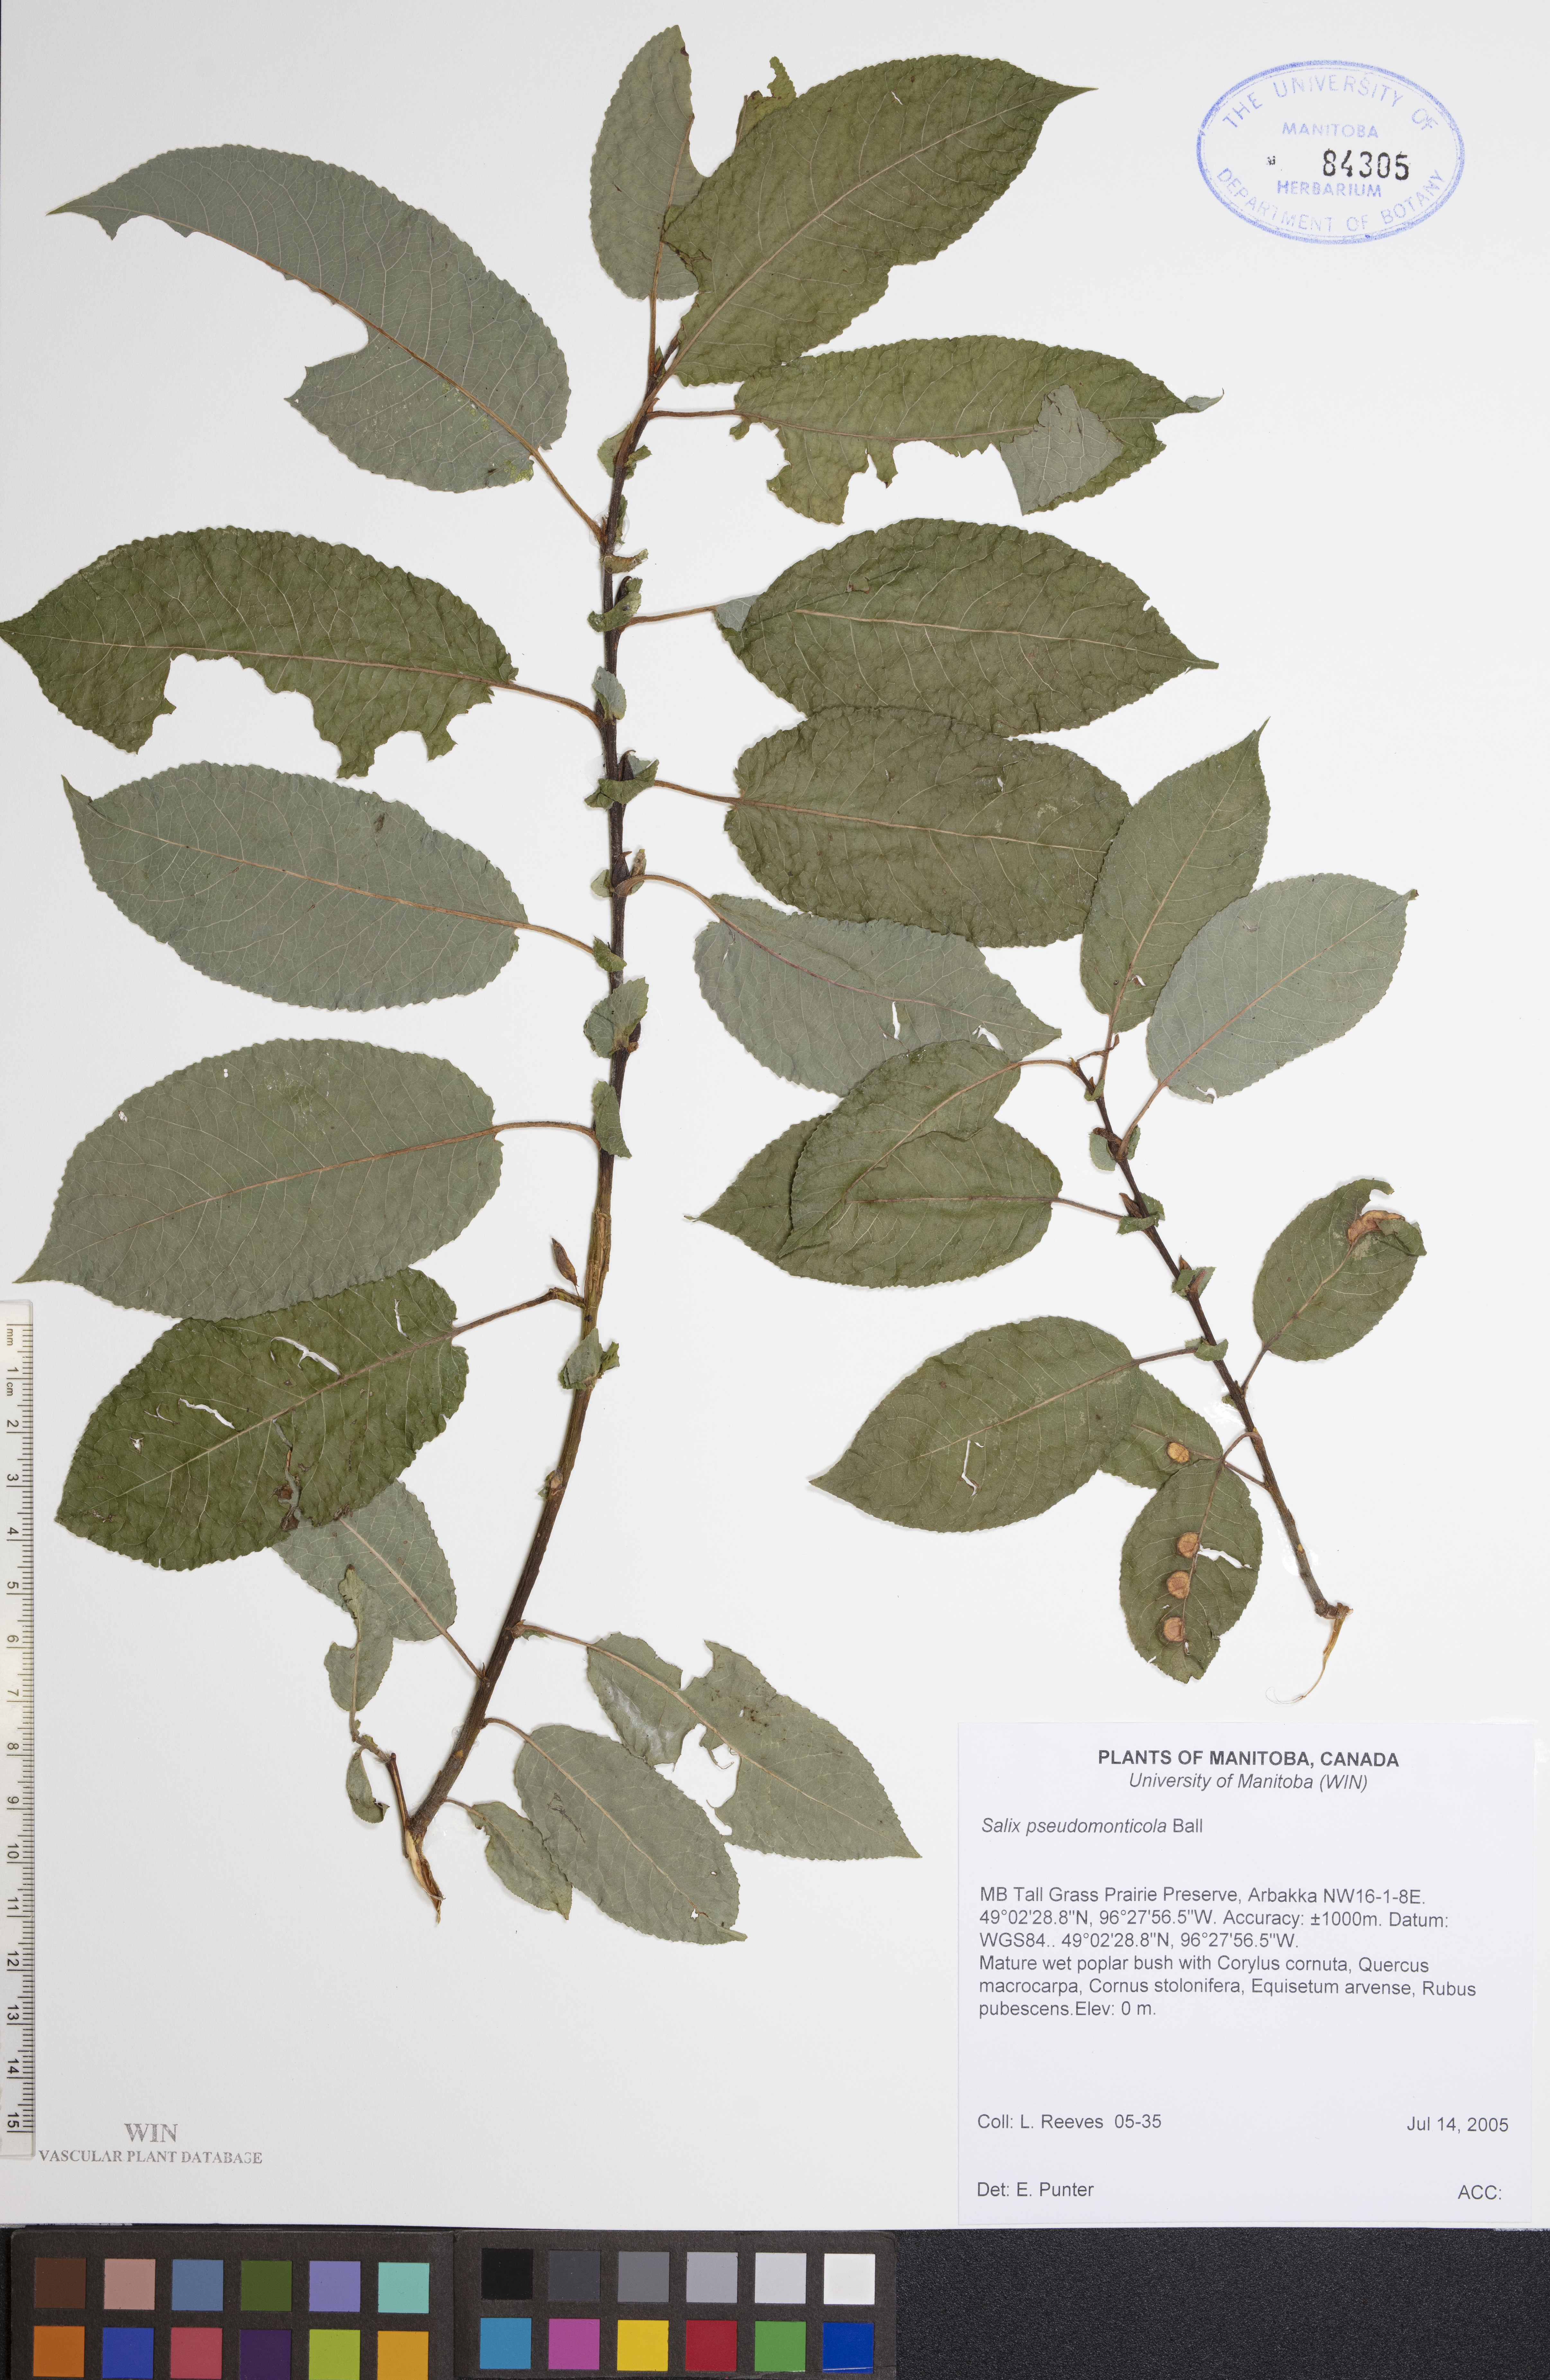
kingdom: Plantae
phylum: Tracheophyta
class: Magnoliopsida
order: Malpighiales
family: Salicaceae
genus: Salix
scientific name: Salix pseudomonticola
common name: Cherry-leaved willow
